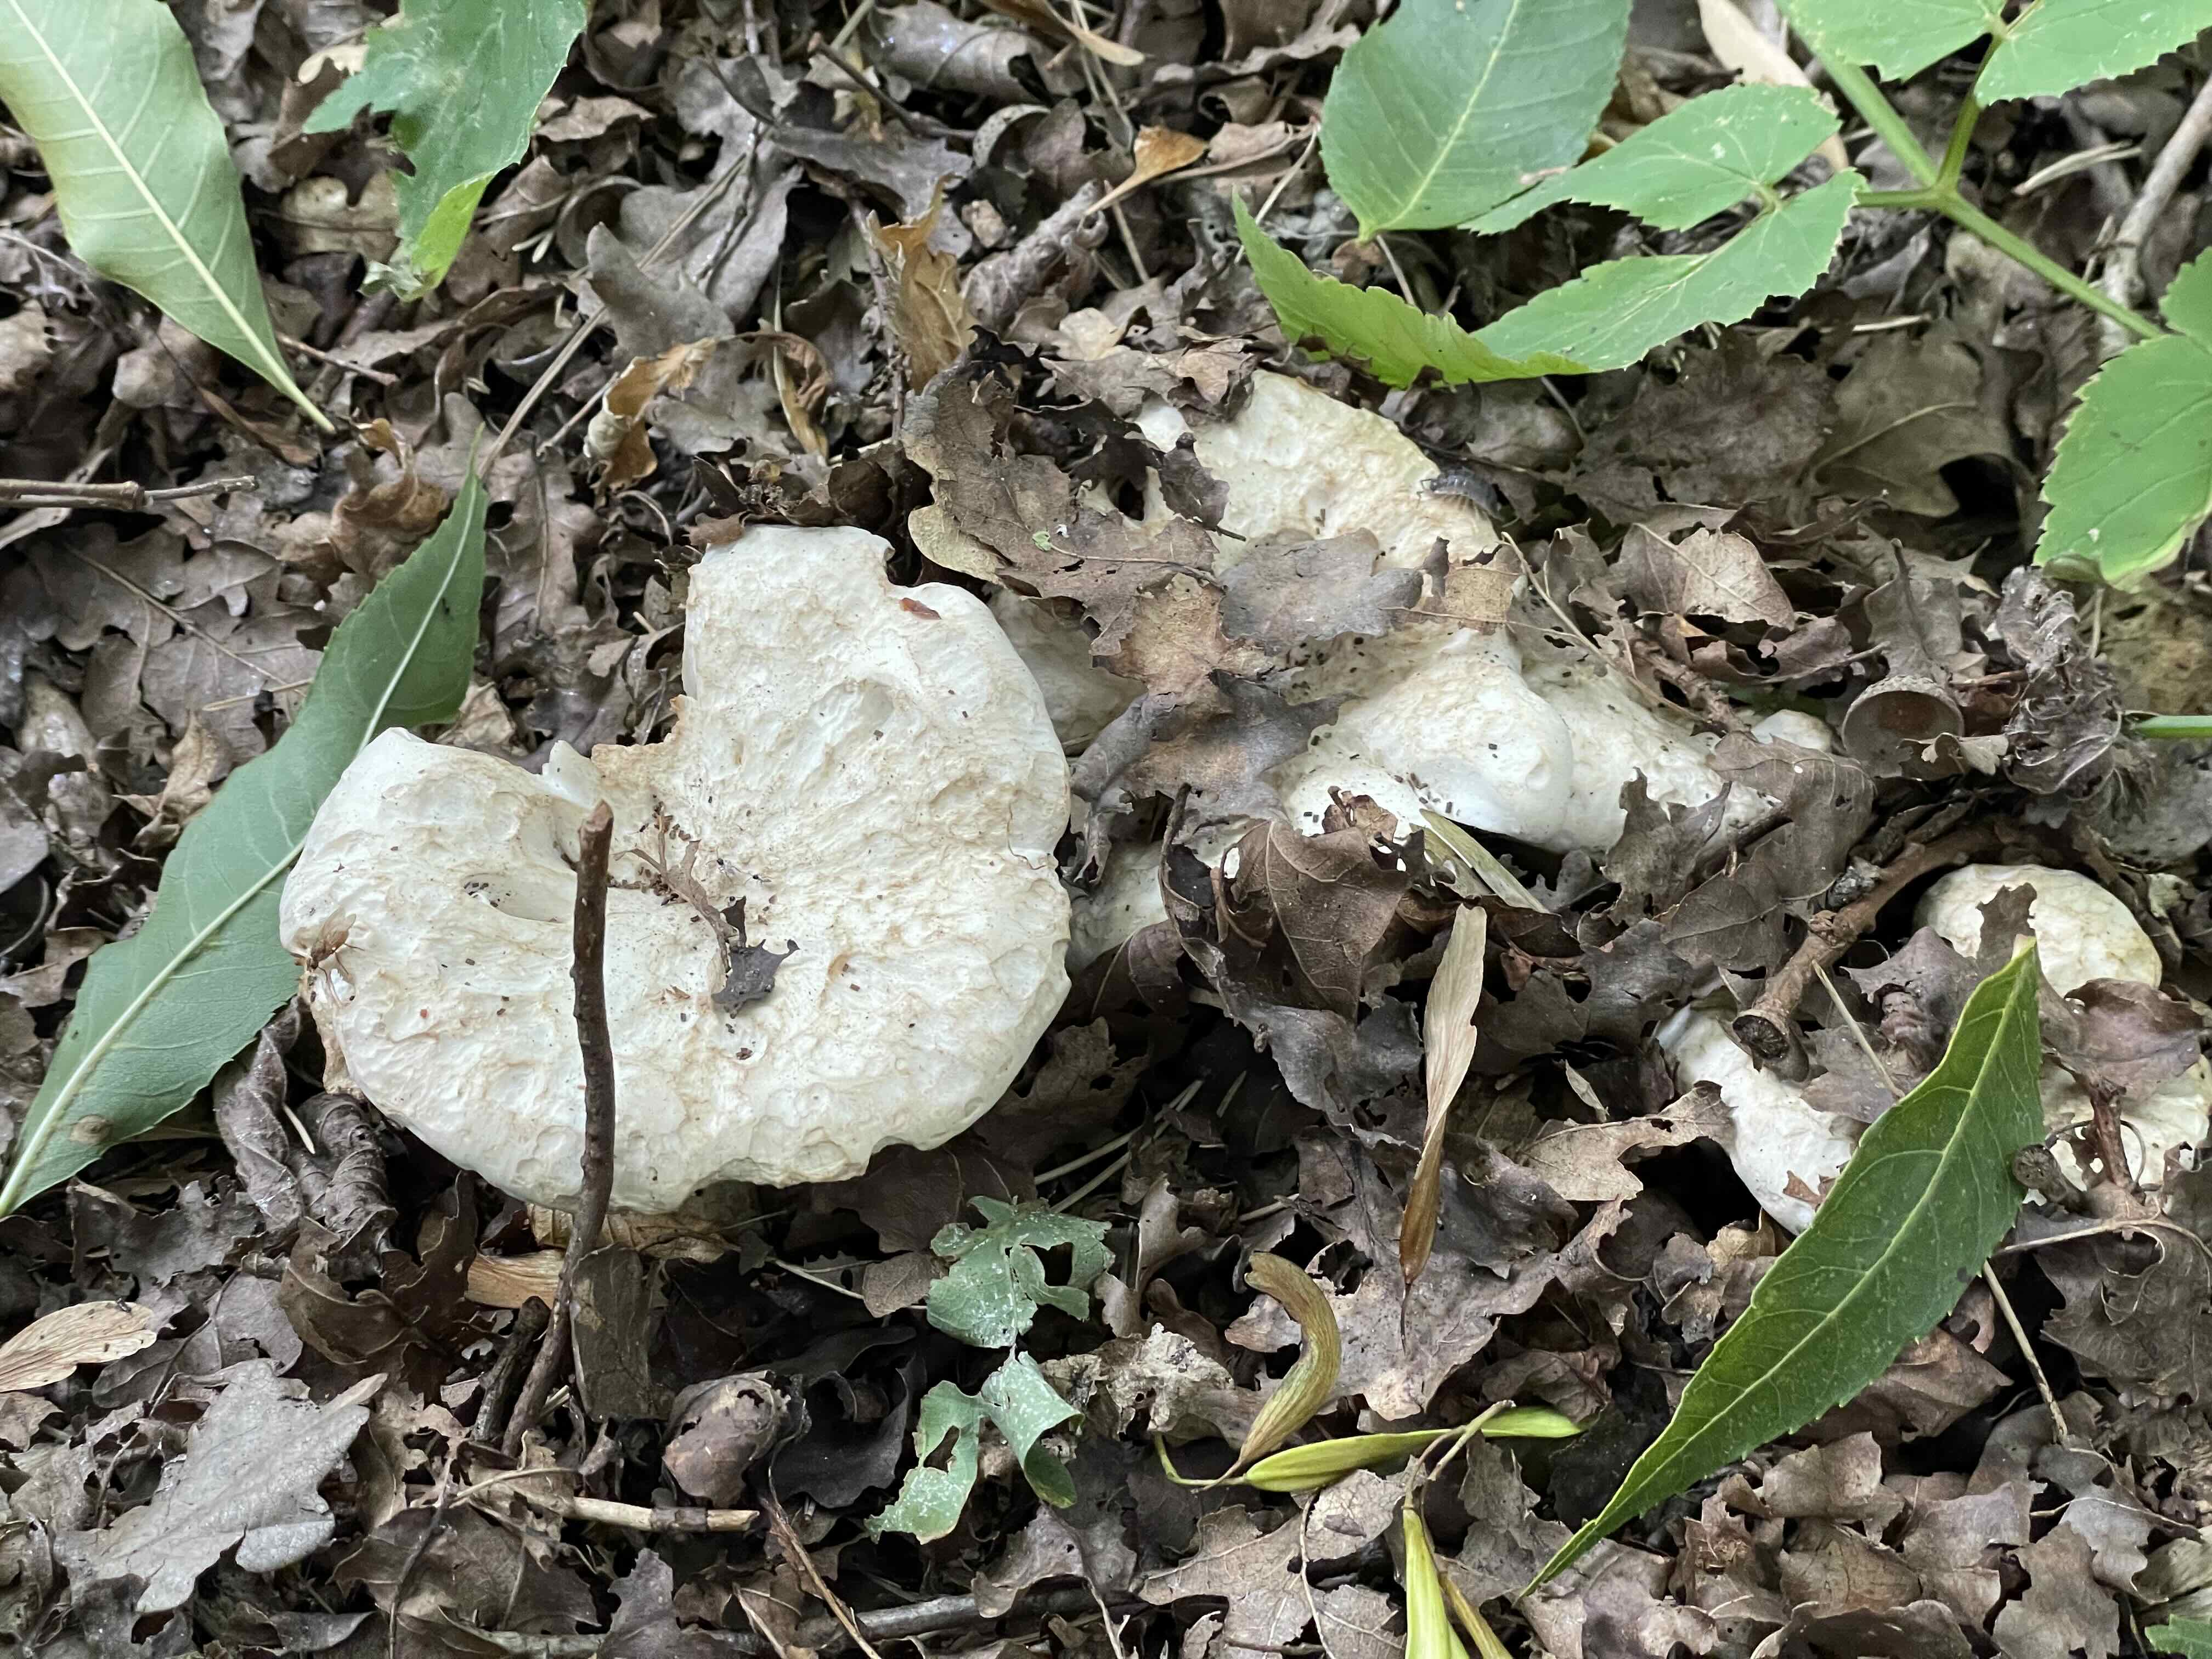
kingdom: Fungi
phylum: Basidiomycota
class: Agaricomycetes
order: Agaricales
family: Tricholomataceae
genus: Aspropaxillus
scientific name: Aspropaxillus giganteus
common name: kæmpe-tragtridderhat
